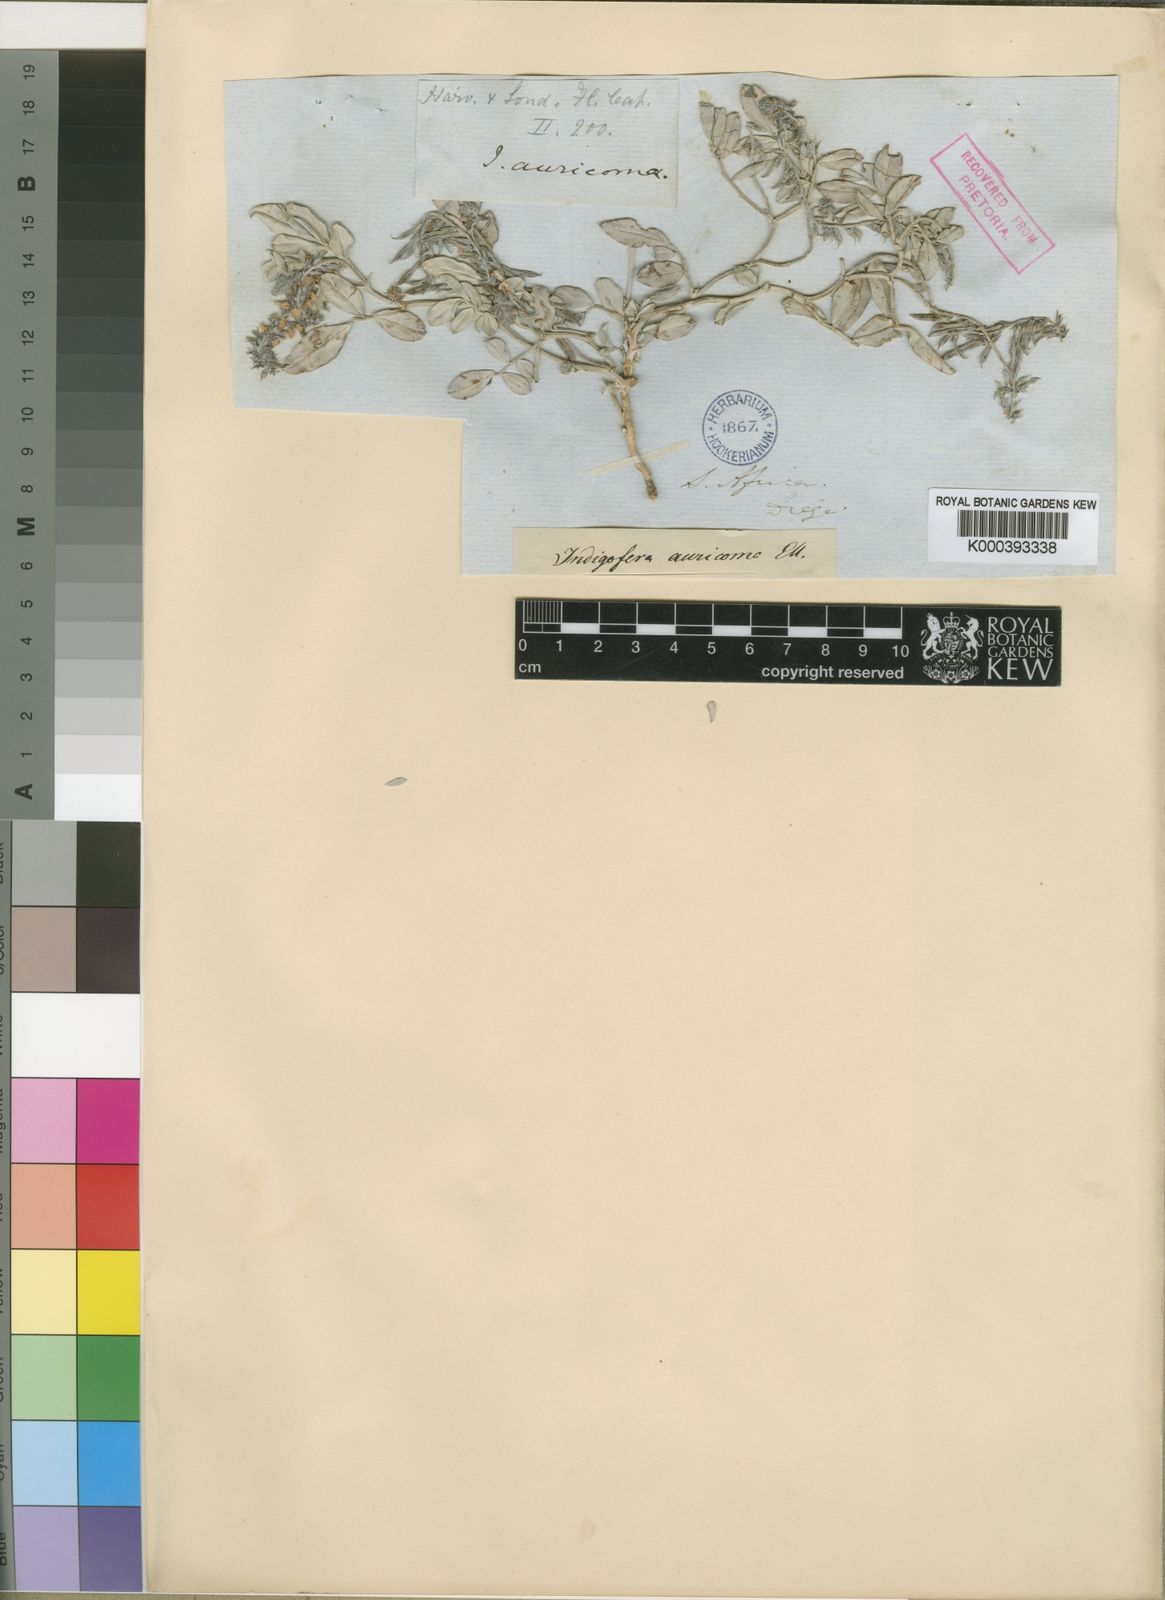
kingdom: Plantae
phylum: Tracheophyta
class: Magnoliopsida
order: Fabales
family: Fabaceae
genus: Indigofera
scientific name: Indigofera auricoma
